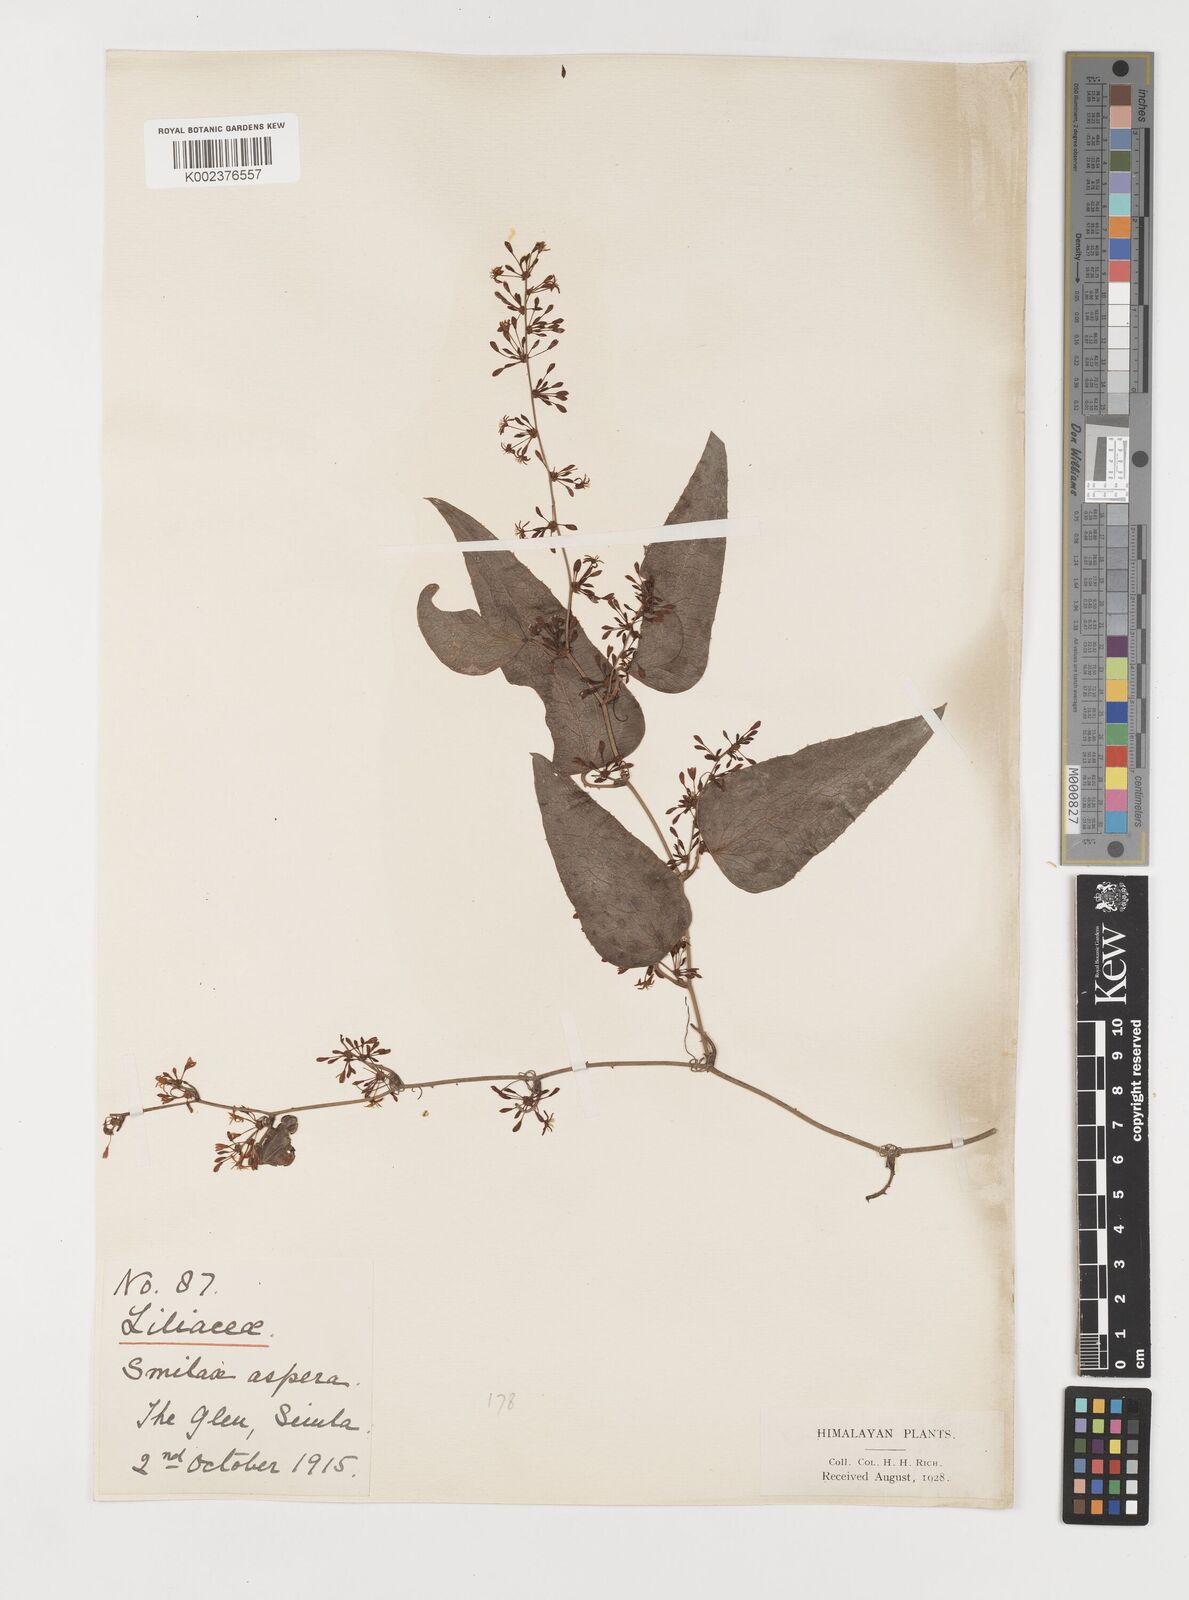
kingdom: Plantae
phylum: Tracheophyta
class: Liliopsida
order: Liliales
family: Smilacaceae
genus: Smilax
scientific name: Smilax aspera
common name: Common smilax
